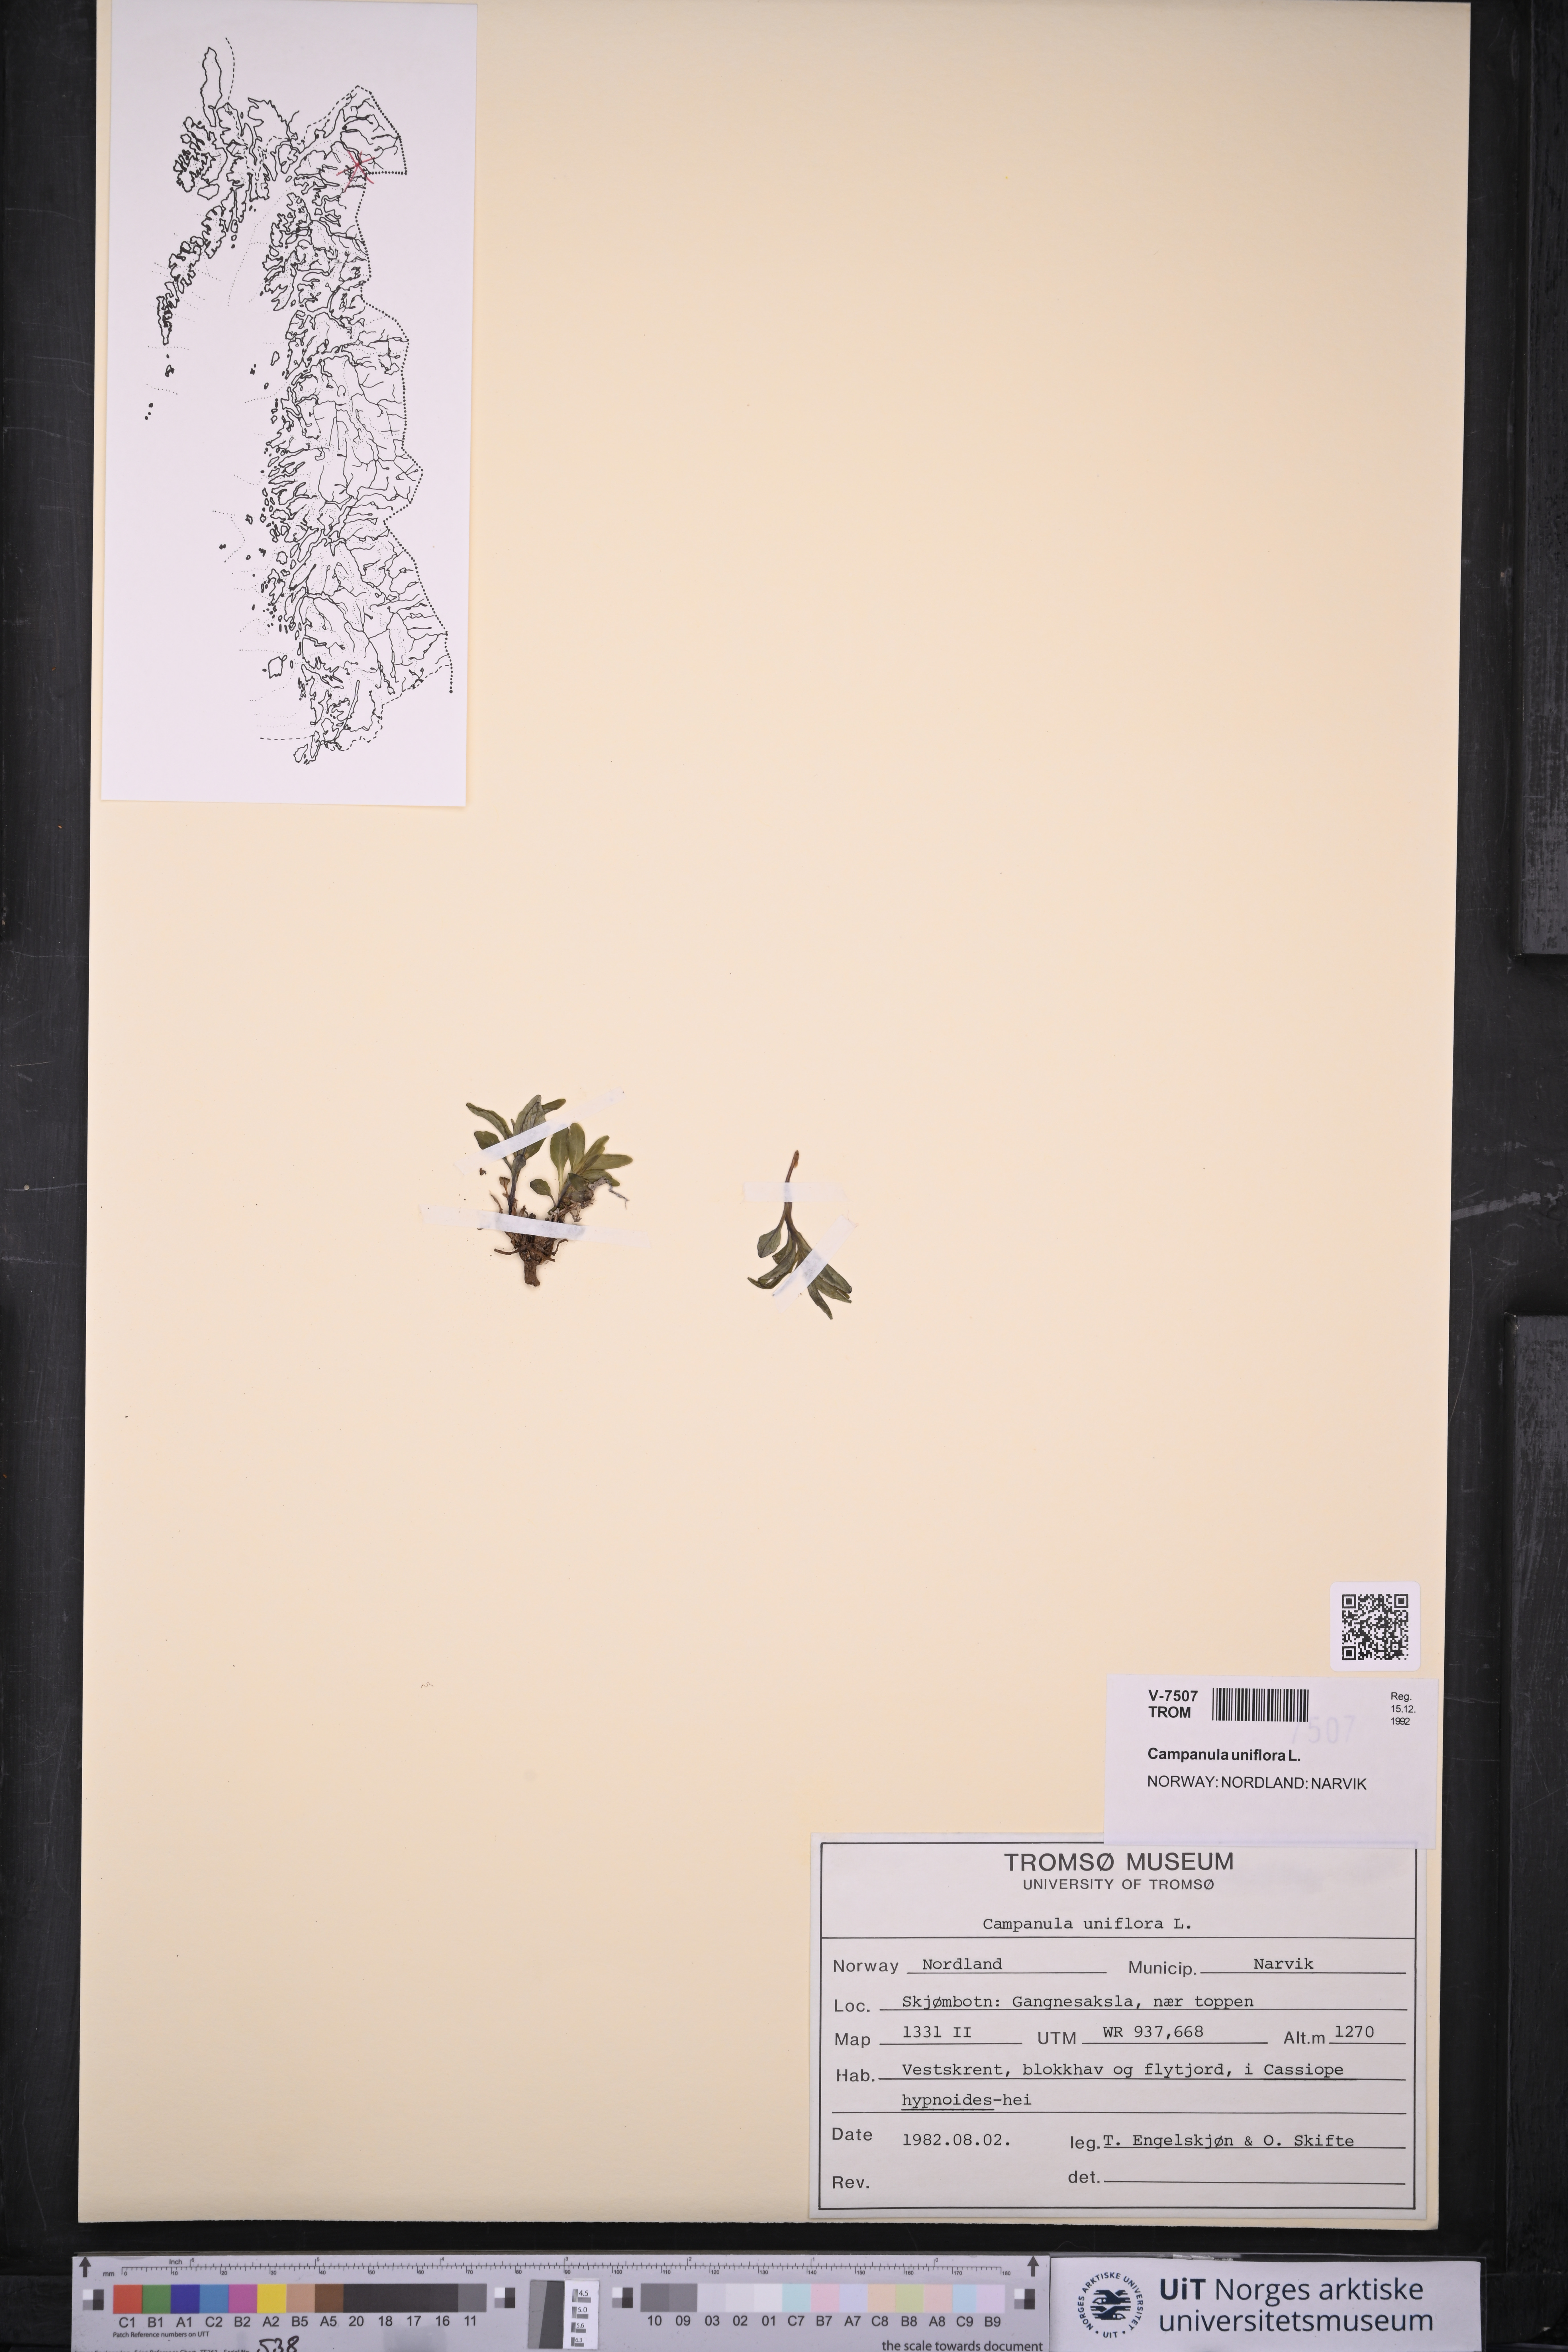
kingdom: Plantae
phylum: Tracheophyta
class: Magnoliopsida
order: Asterales
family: Campanulaceae
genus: Melanocalyx
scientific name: Melanocalyx uniflora
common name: Alpine harebell
